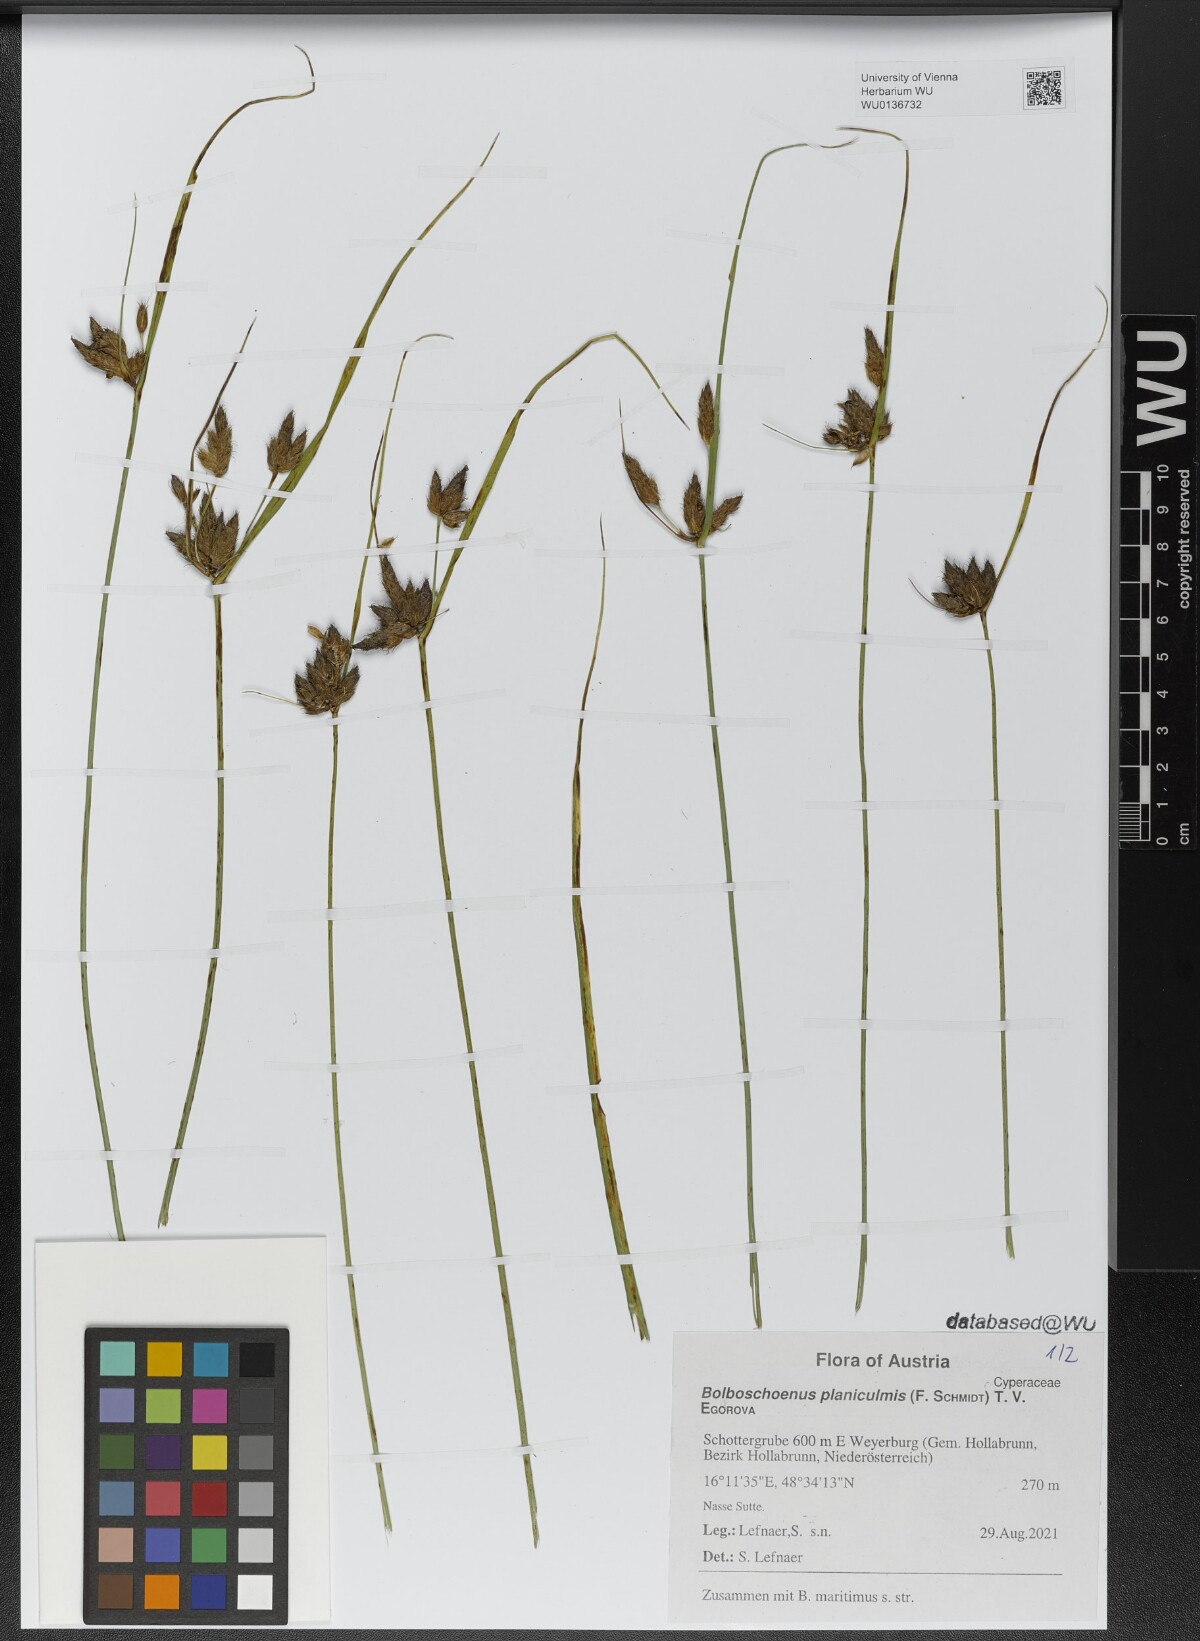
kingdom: Plantae
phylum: Tracheophyta
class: Liliopsida
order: Poales
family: Cyperaceae
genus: Bolboschoenus
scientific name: Bolboschoenus planiculmis
